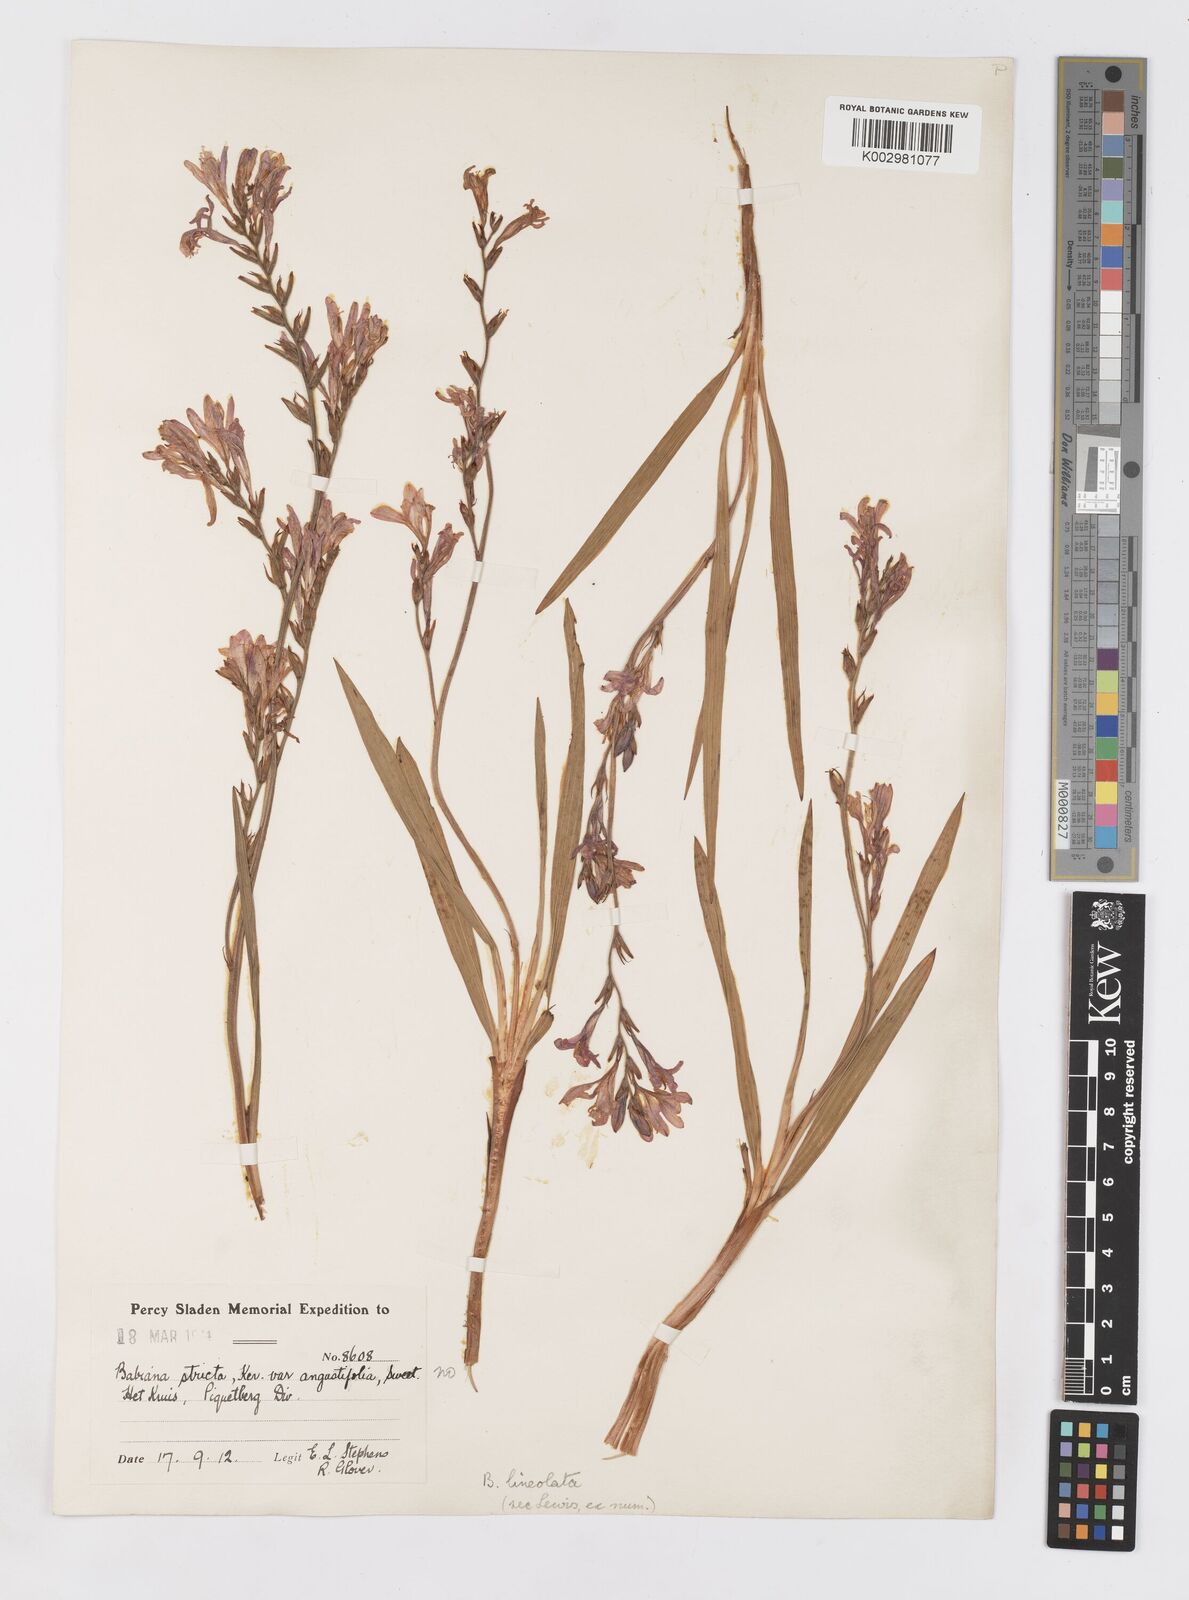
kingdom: Plantae
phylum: Tracheophyta
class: Liliopsida
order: Asparagales
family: Iridaceae
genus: Babiana
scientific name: Babiana lineolata
